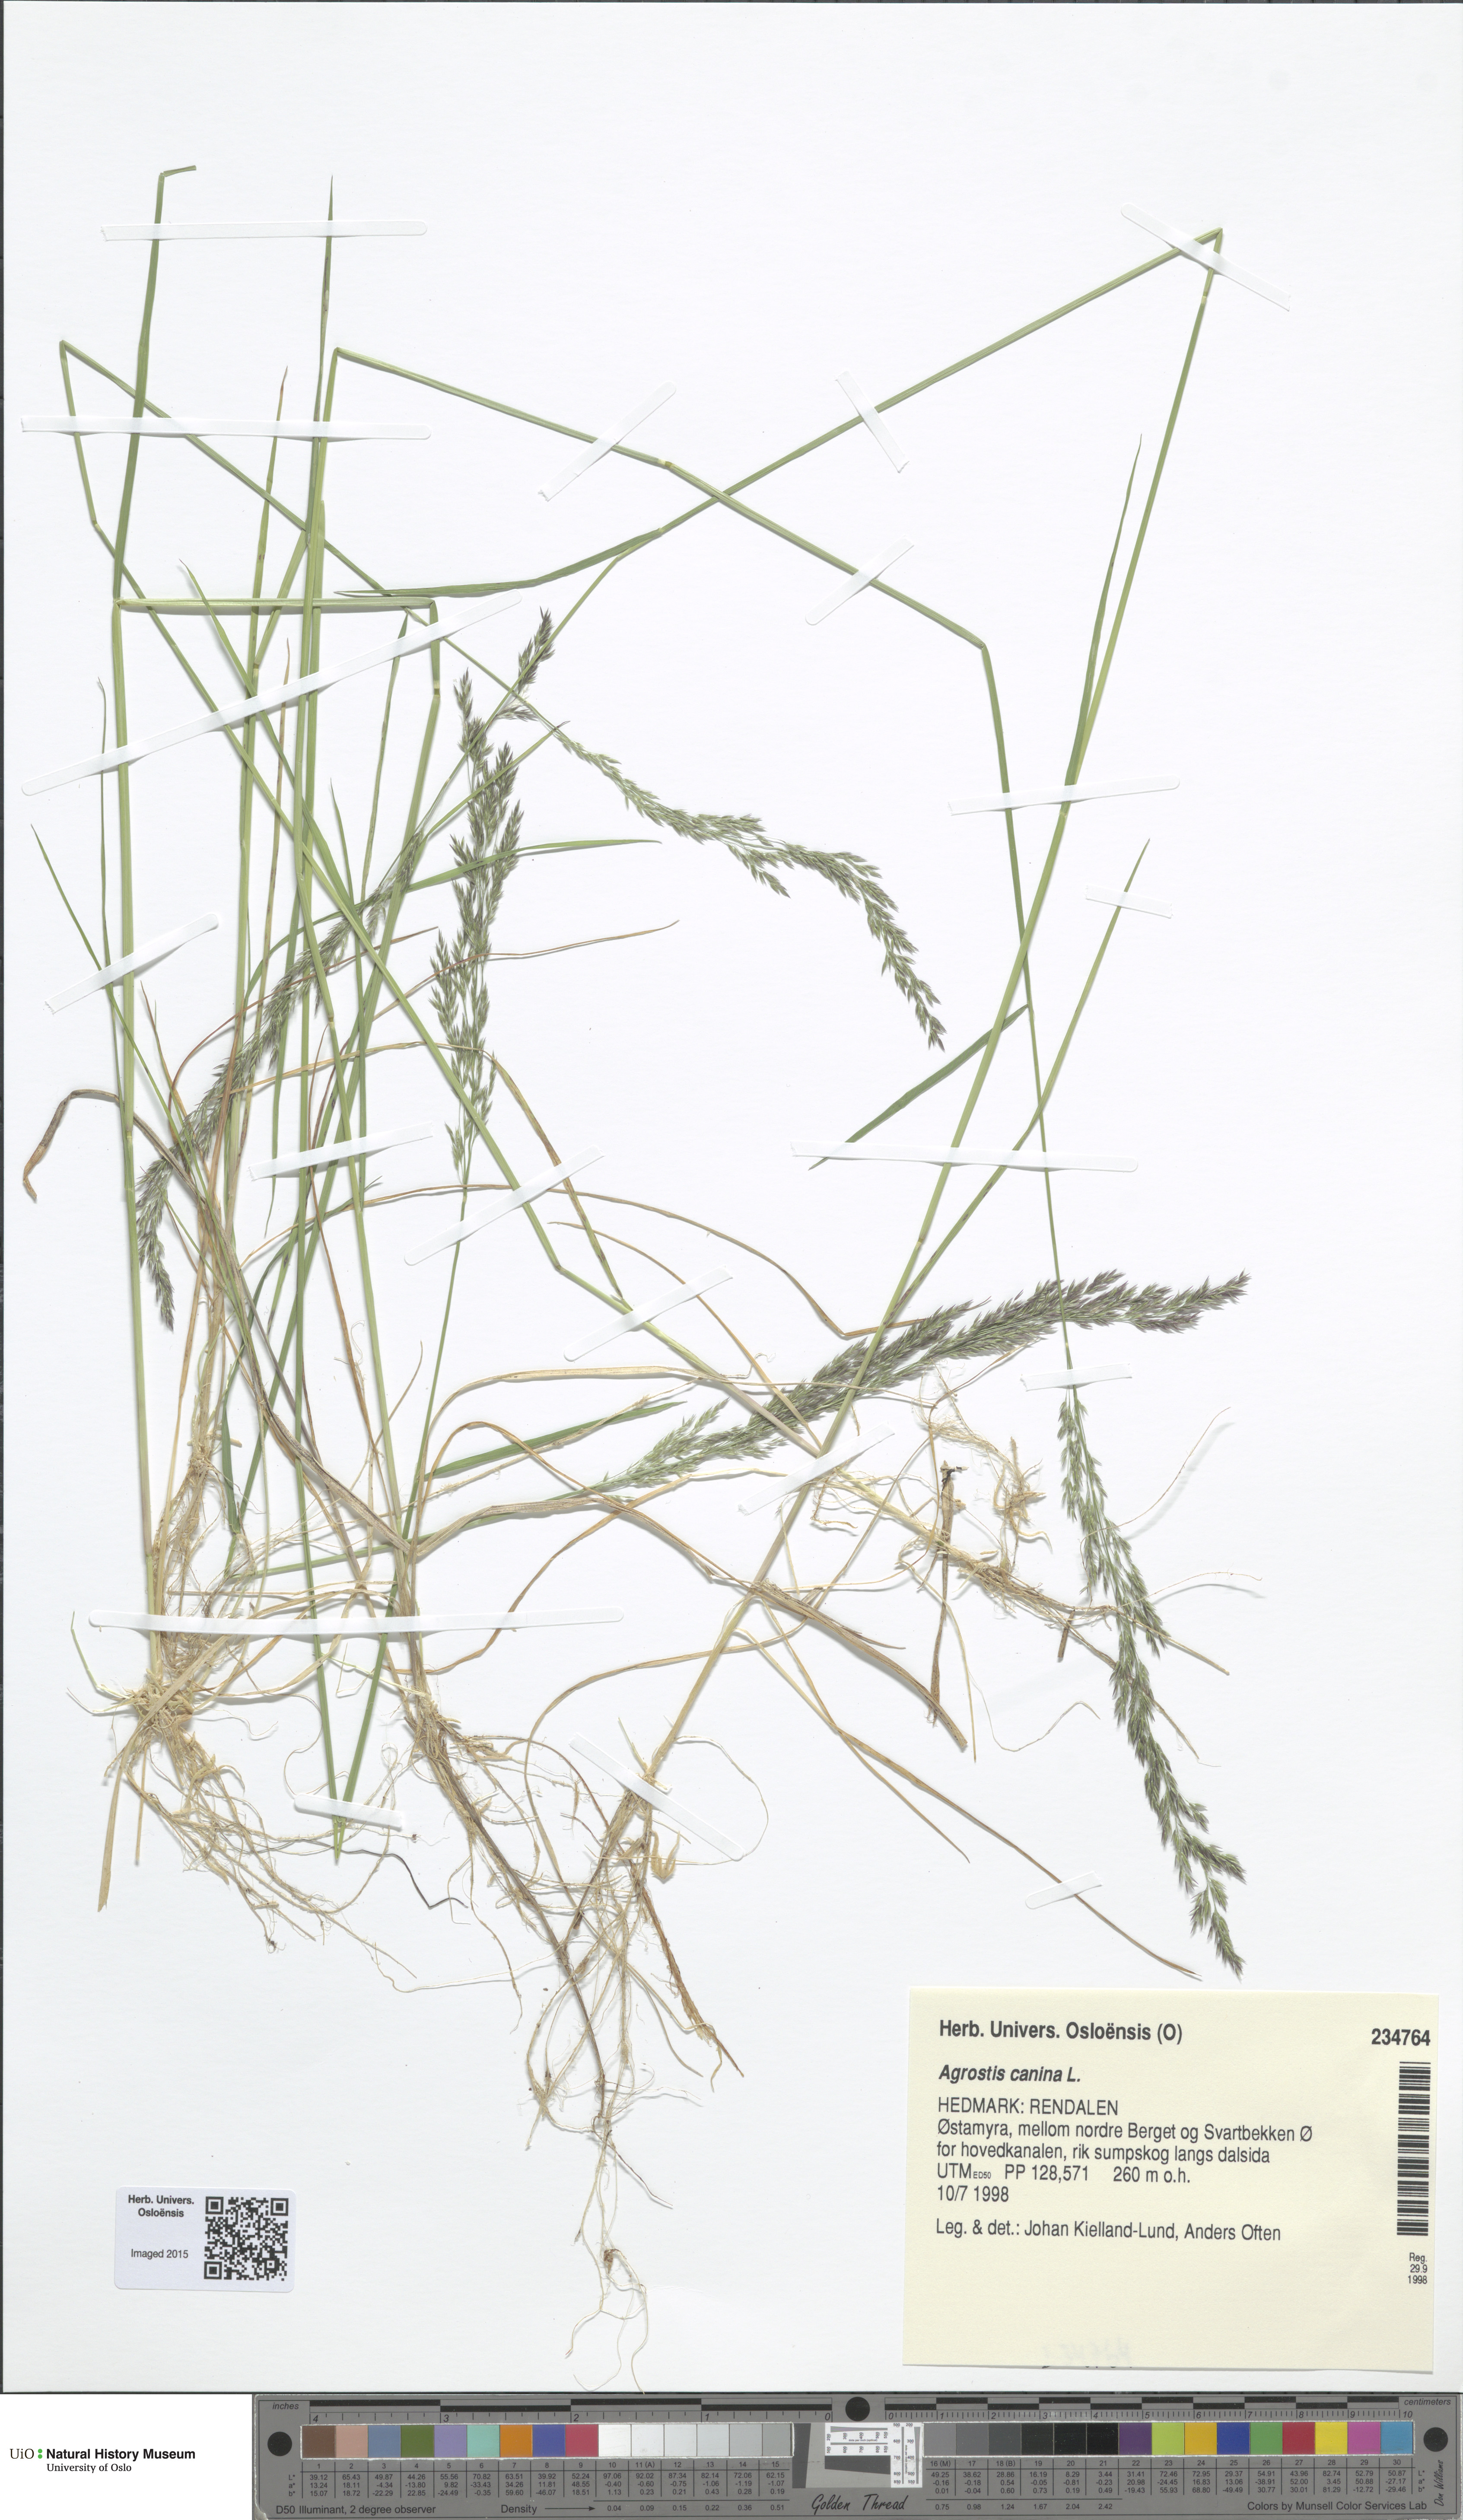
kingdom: Plantae
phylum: Tracheophyta
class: Liliopsida
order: Poales
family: Poaceae
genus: Agrostis
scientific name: Agrostis canina
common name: Velvet bent
